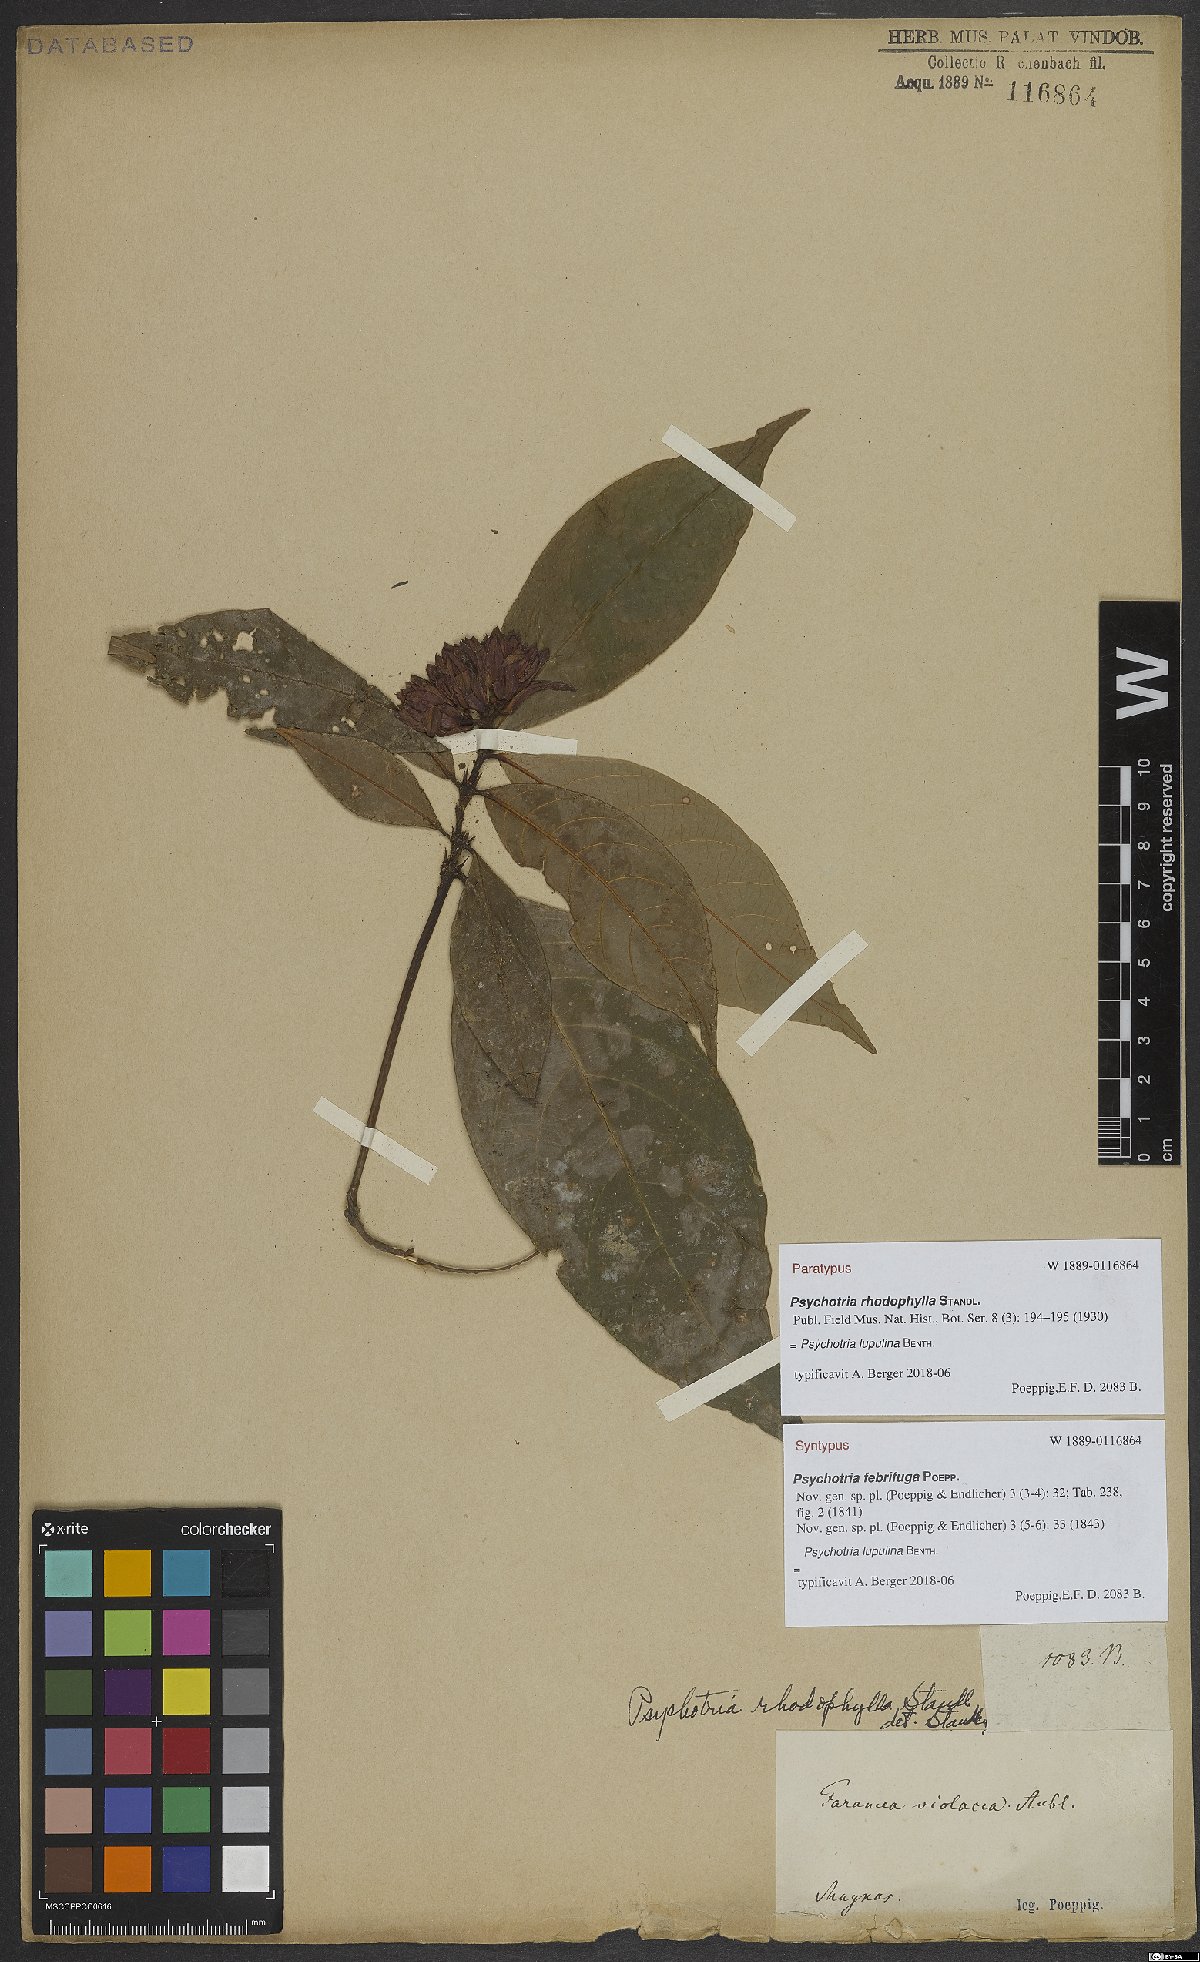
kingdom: Plantae
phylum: Tracheophyta
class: Magnoliopsida
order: Gentianales
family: Rubiaceae
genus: Palicourea
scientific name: Palicourea justiciifolia
